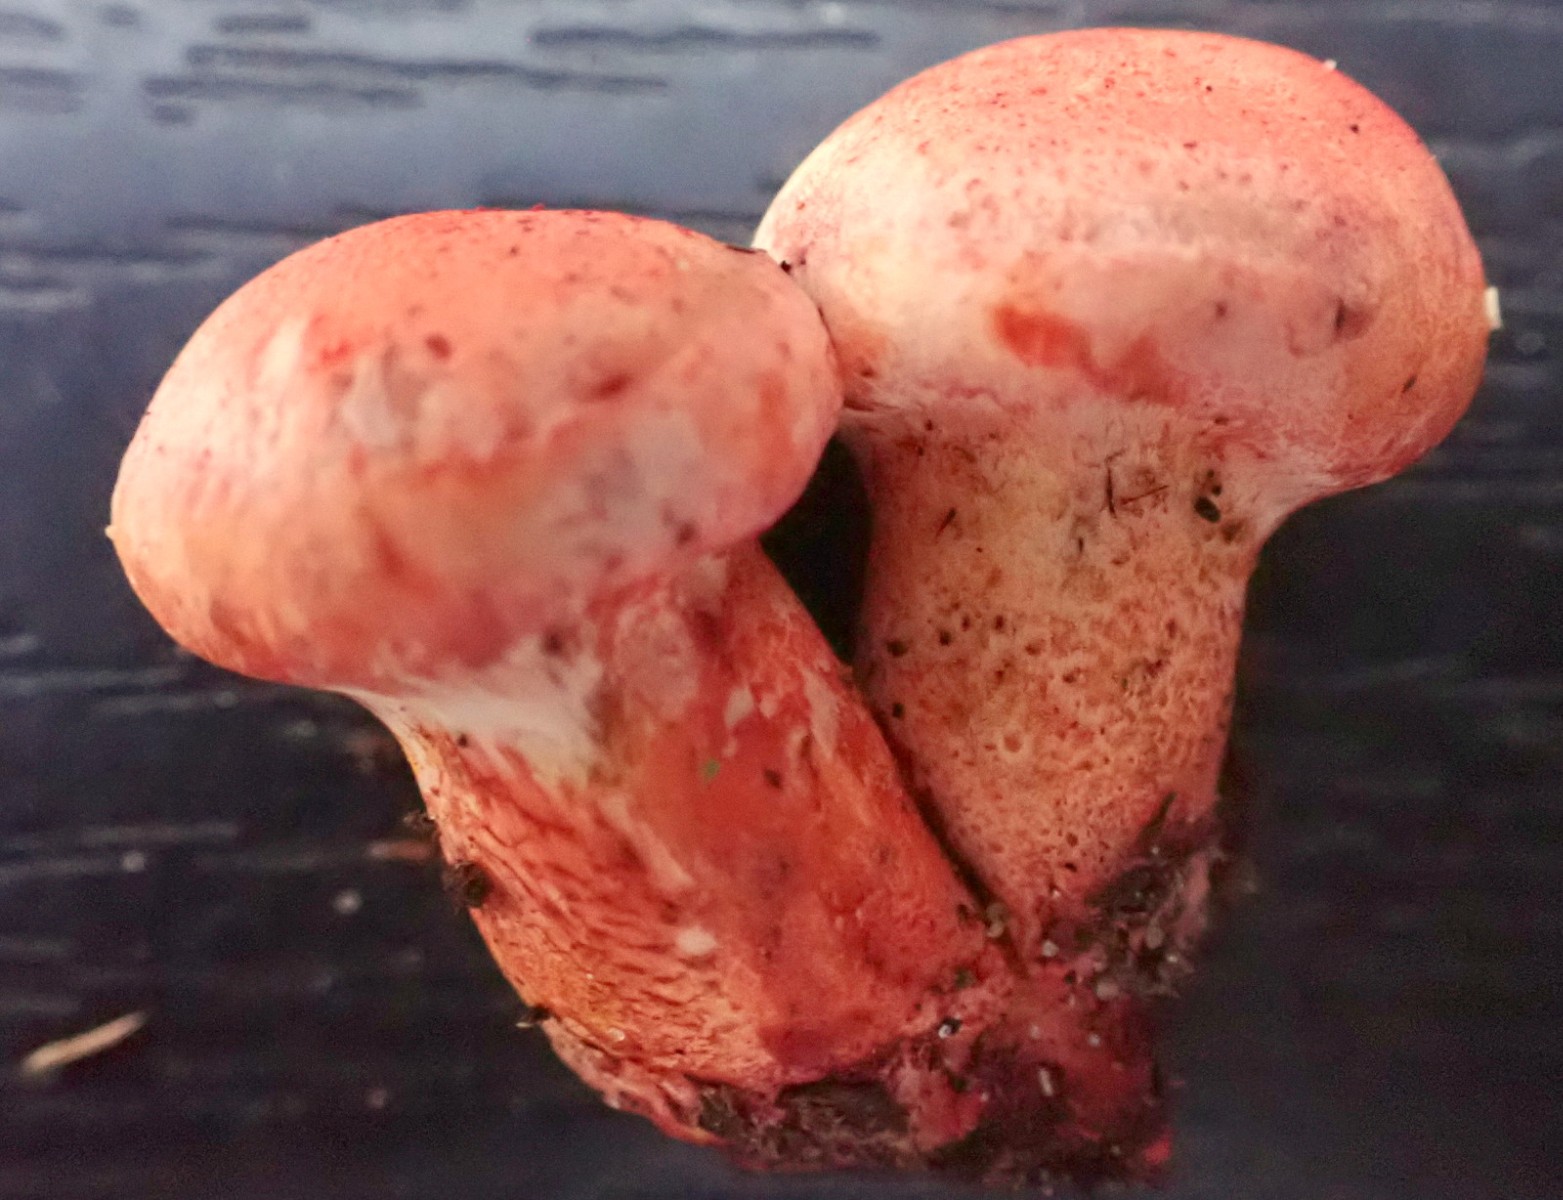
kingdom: Fungi
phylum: Basidiomycota
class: Agaricomycetes
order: Agaricales
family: Cortinariaceae
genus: Cortinarius
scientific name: Cortinarius bolaris
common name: cinnoberskællet slørhat
